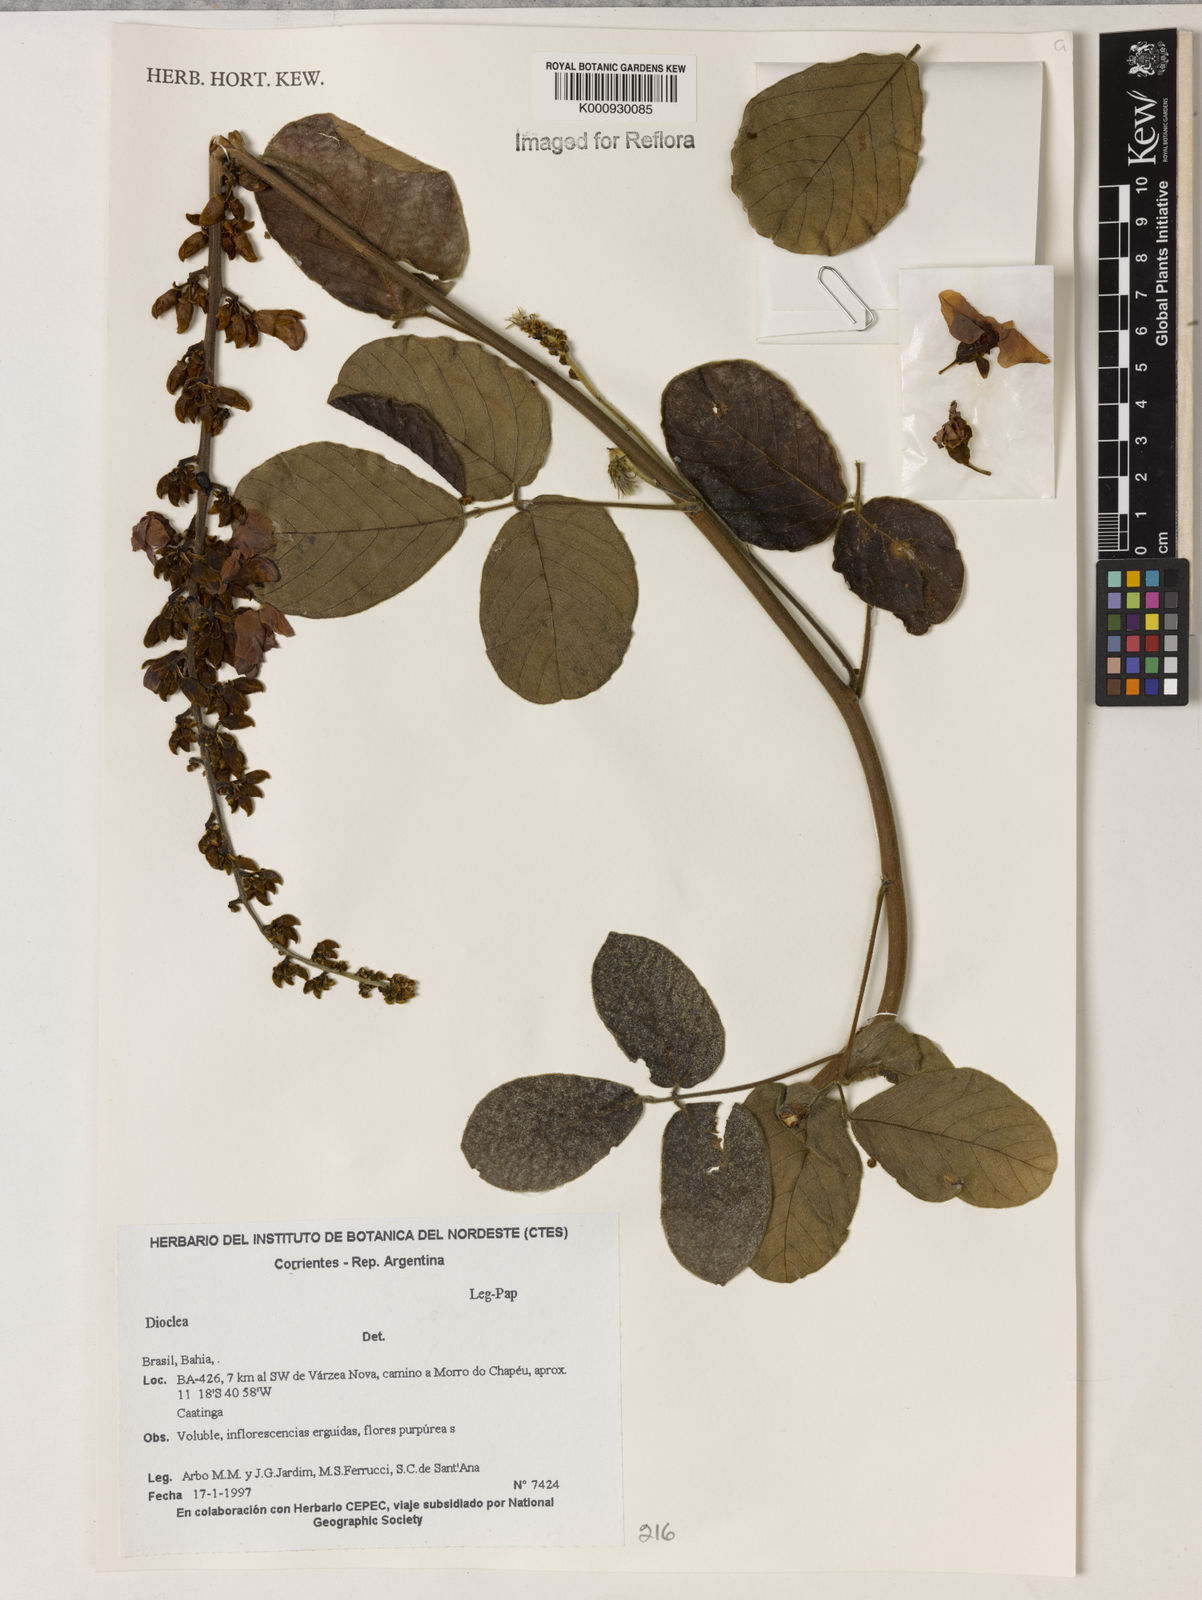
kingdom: Plantae
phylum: Tracheophyta
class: Magnoliopsida
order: Fabales
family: Fabaceae
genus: Dioclea
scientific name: Dioclea
